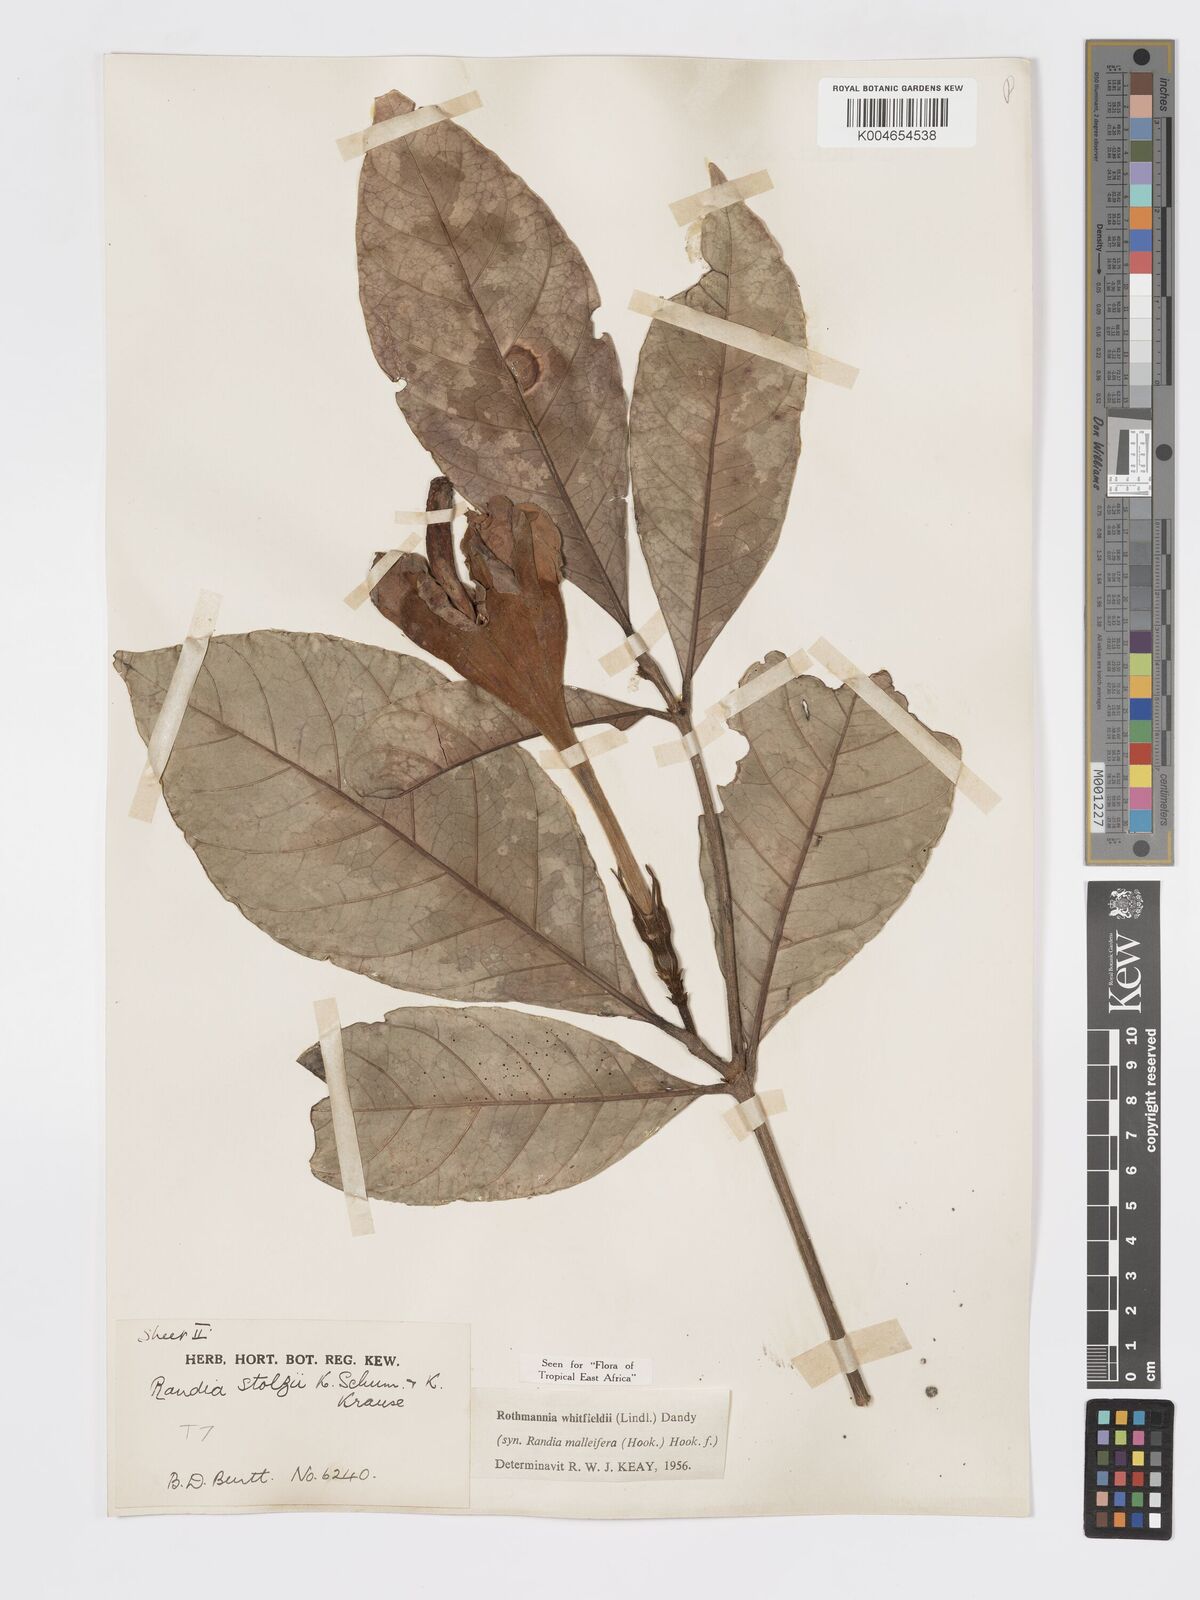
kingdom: Plantae
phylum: Tracheophyta
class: Magnoliopsida
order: Gentianales
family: Rubiaceae
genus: Rothmannia
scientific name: Rothmannia whitfieldii
